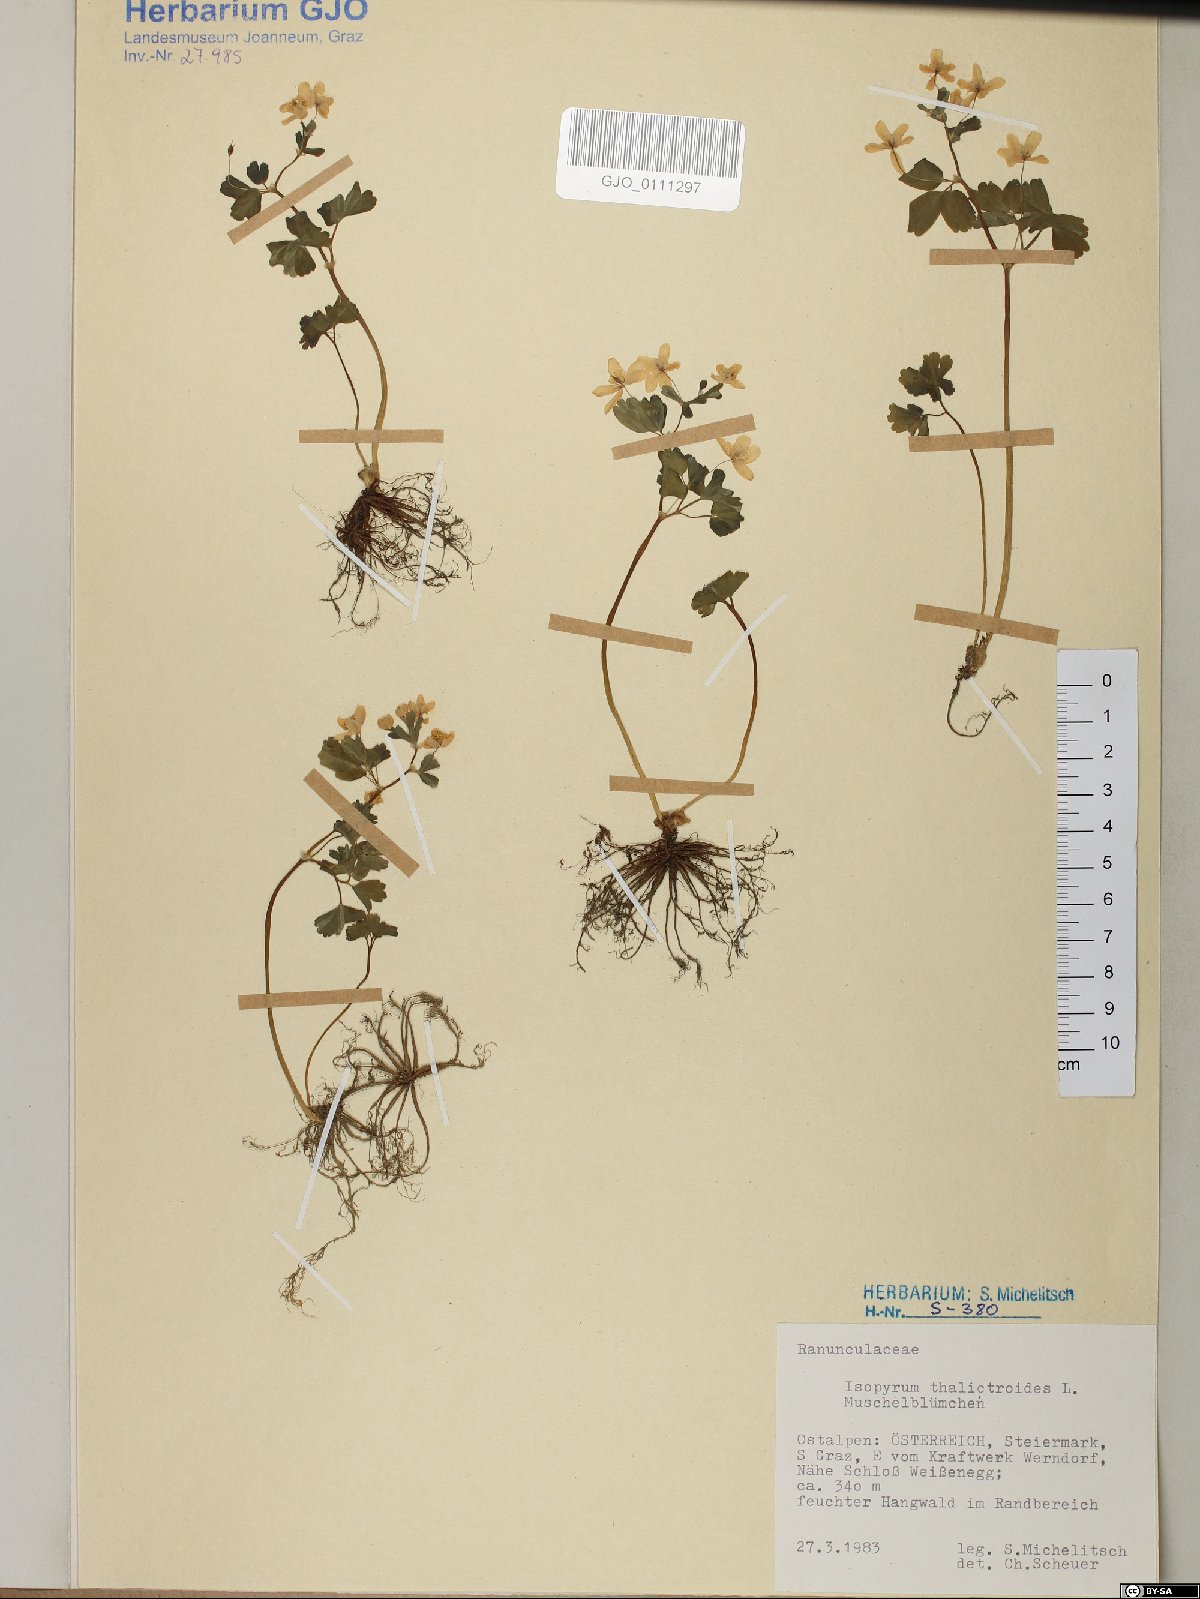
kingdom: Plantae
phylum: Tracheophyta
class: Magnoliopsida
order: Ranunculales
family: Ranunculaceae
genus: Isopyrum
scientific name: Isopyrum thalictroides
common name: Isopyrum
